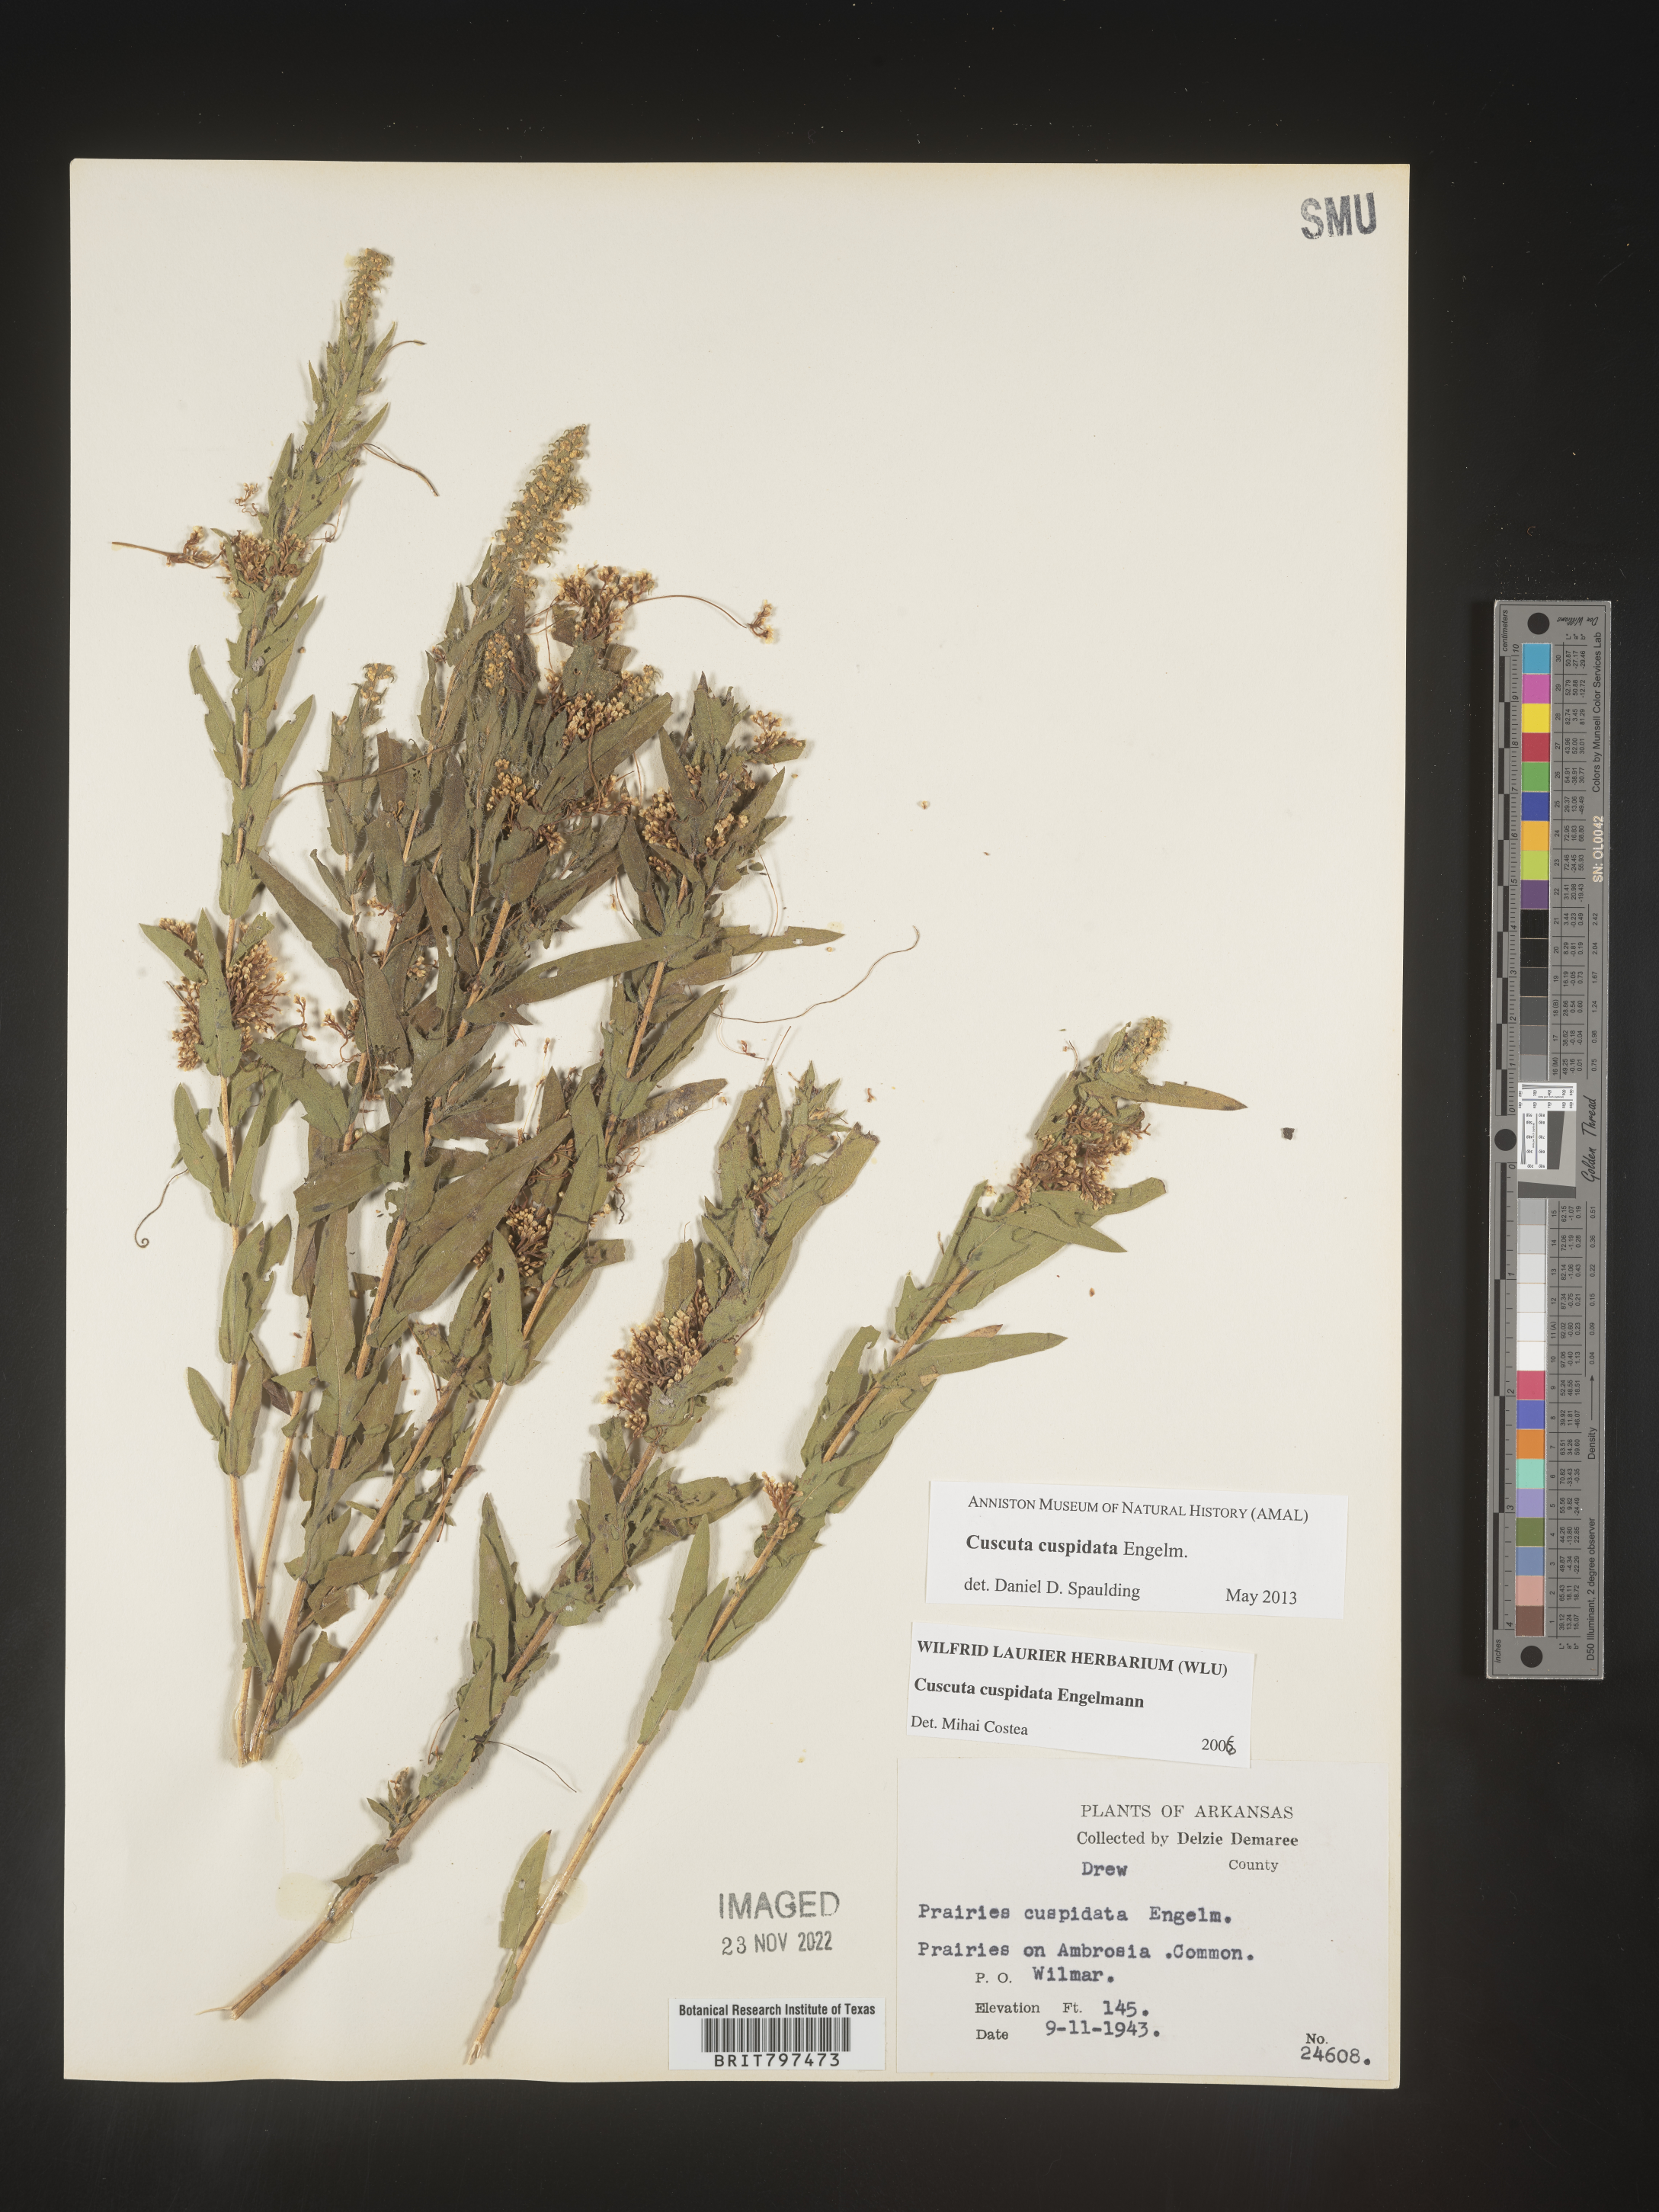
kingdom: Plantae
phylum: Tracheophyta
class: Magnoliopsida
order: Solanales
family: Convolvulaceae
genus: Cuscuta
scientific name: Cuscuta cuspidata
